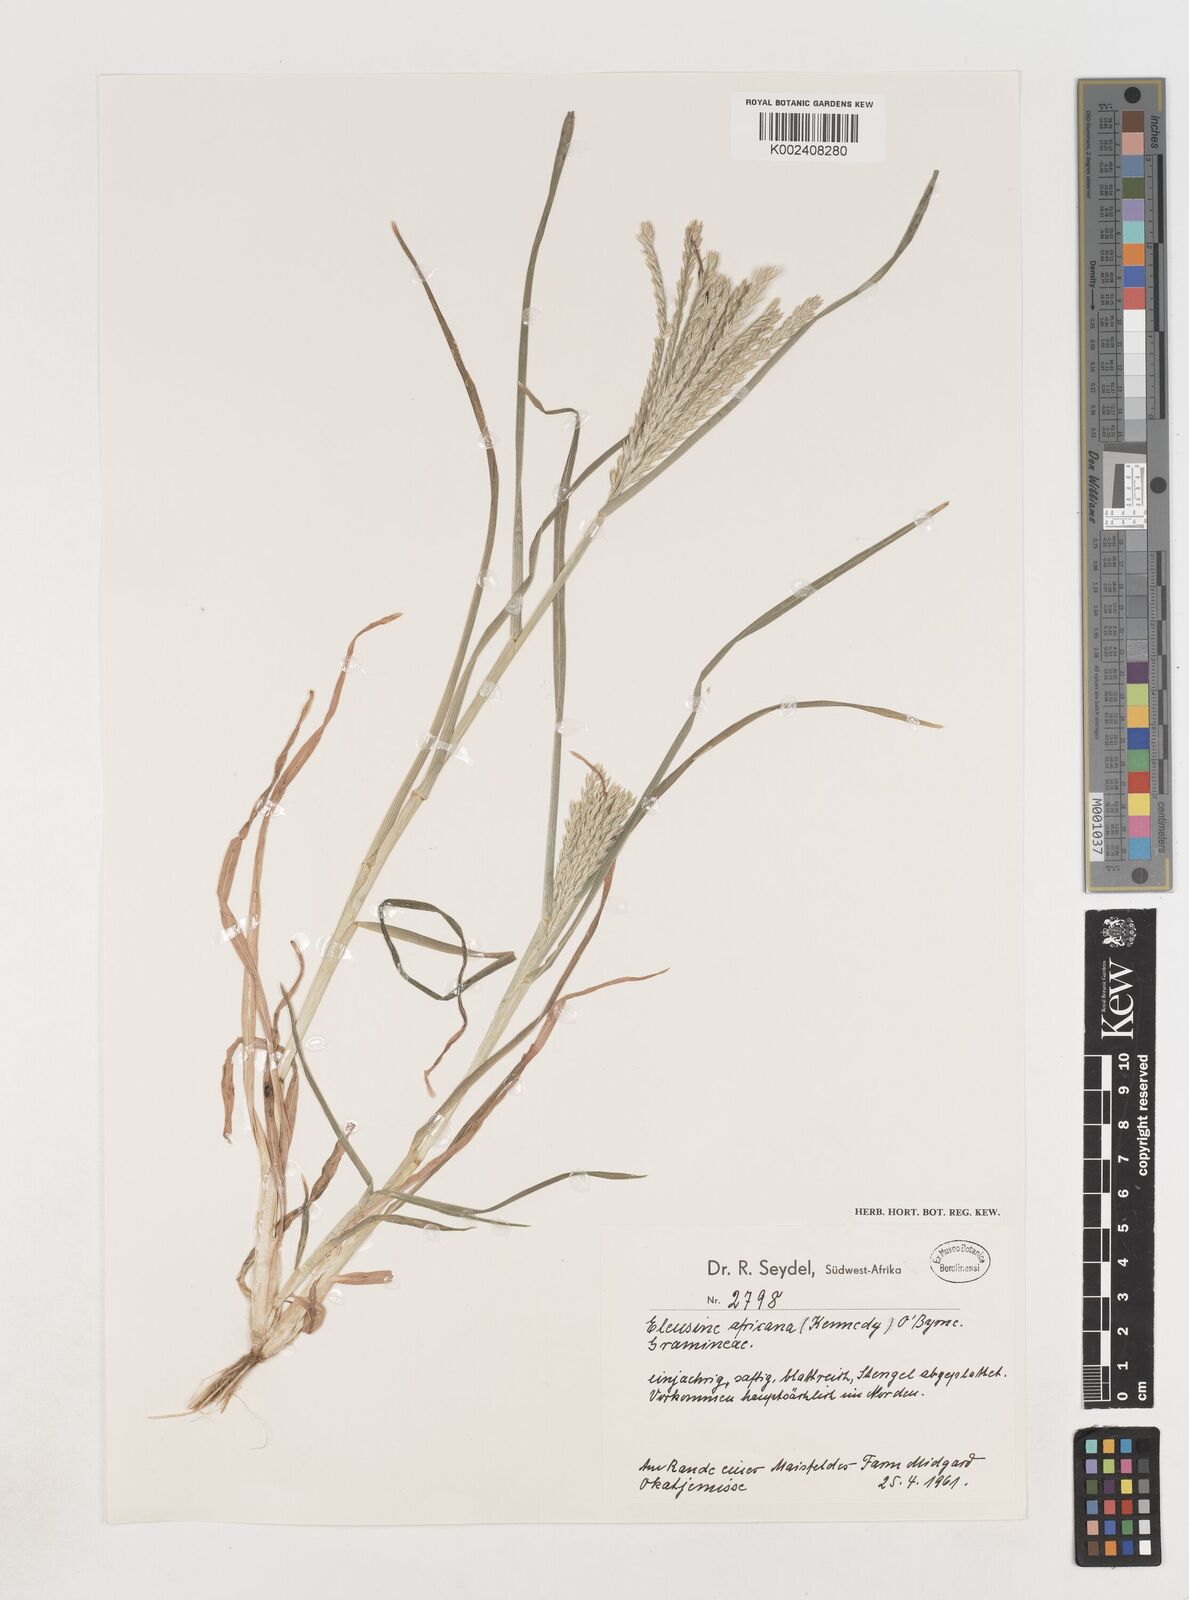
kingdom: Plantae
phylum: Tracheophyta
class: Liliopsida
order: Poales
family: Poaceae
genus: Eleusine
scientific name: Eleusine africana
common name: Wild african finger millet
